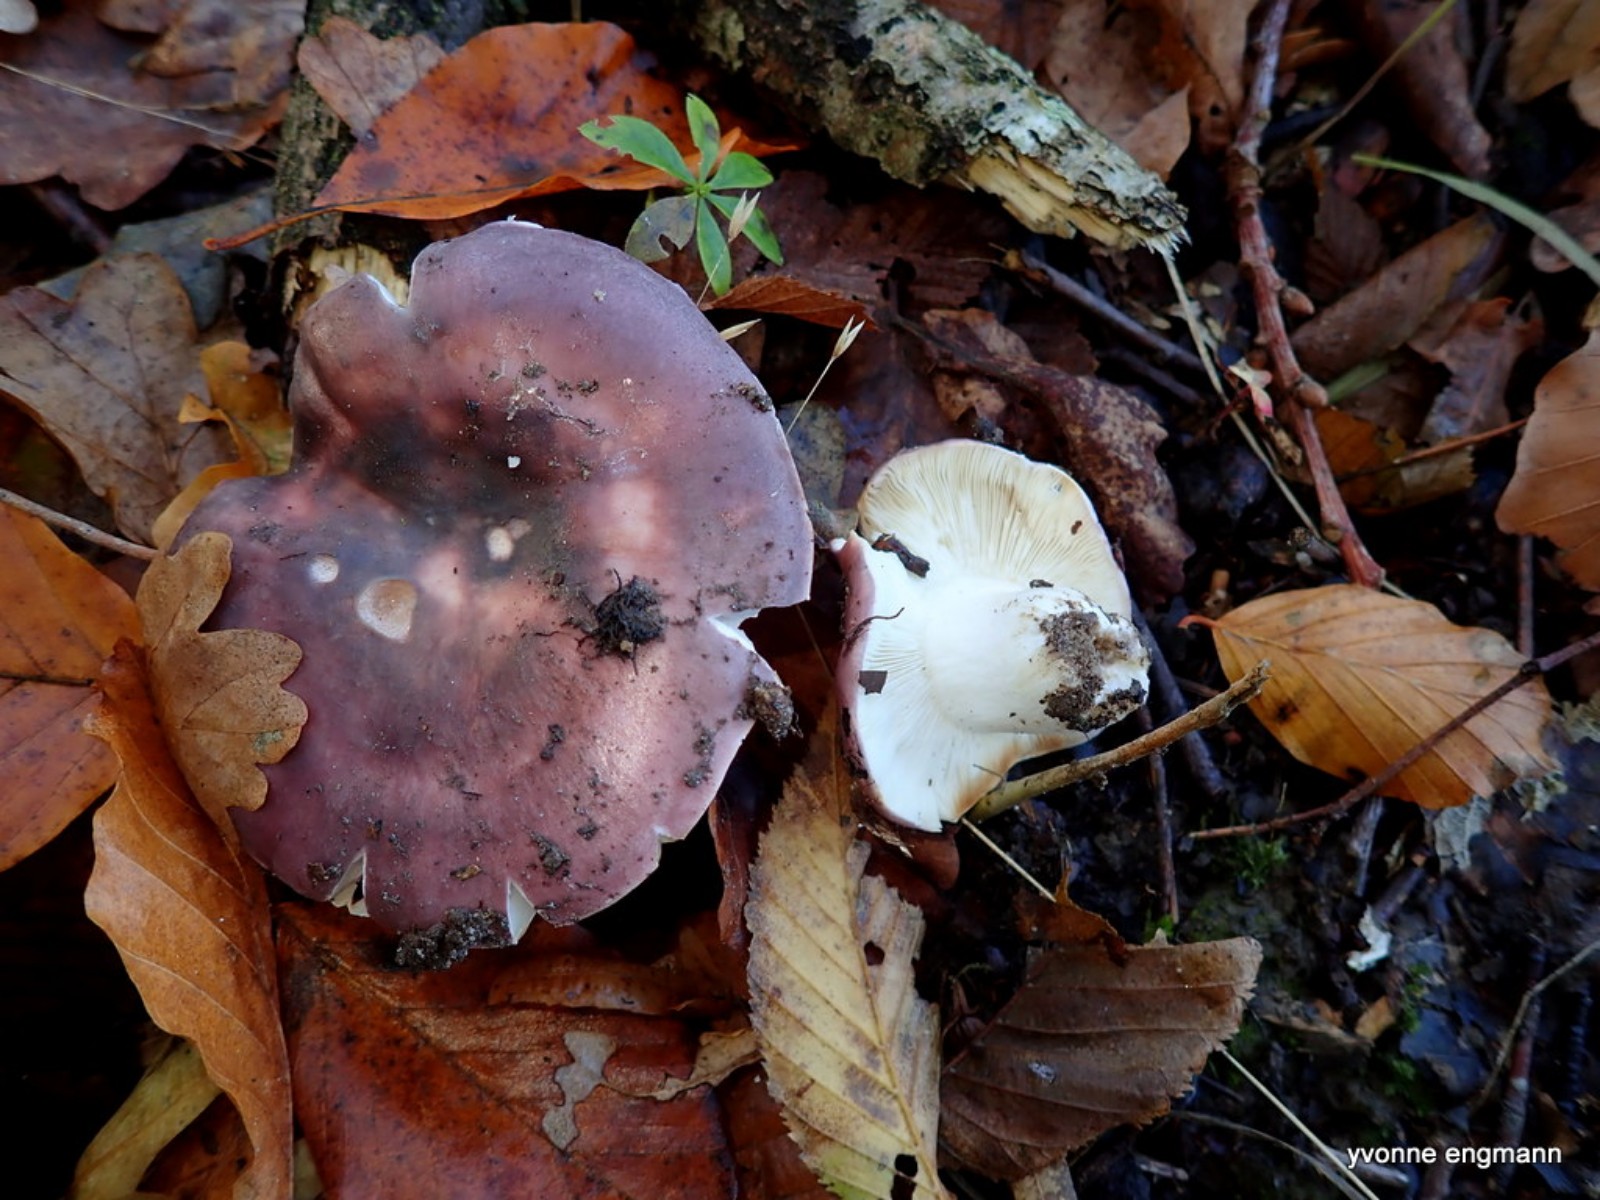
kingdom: Fungi
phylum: Basidiomycota
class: Agaricomycetes
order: Russulales
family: Russulaceae
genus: Russula
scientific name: Russula
